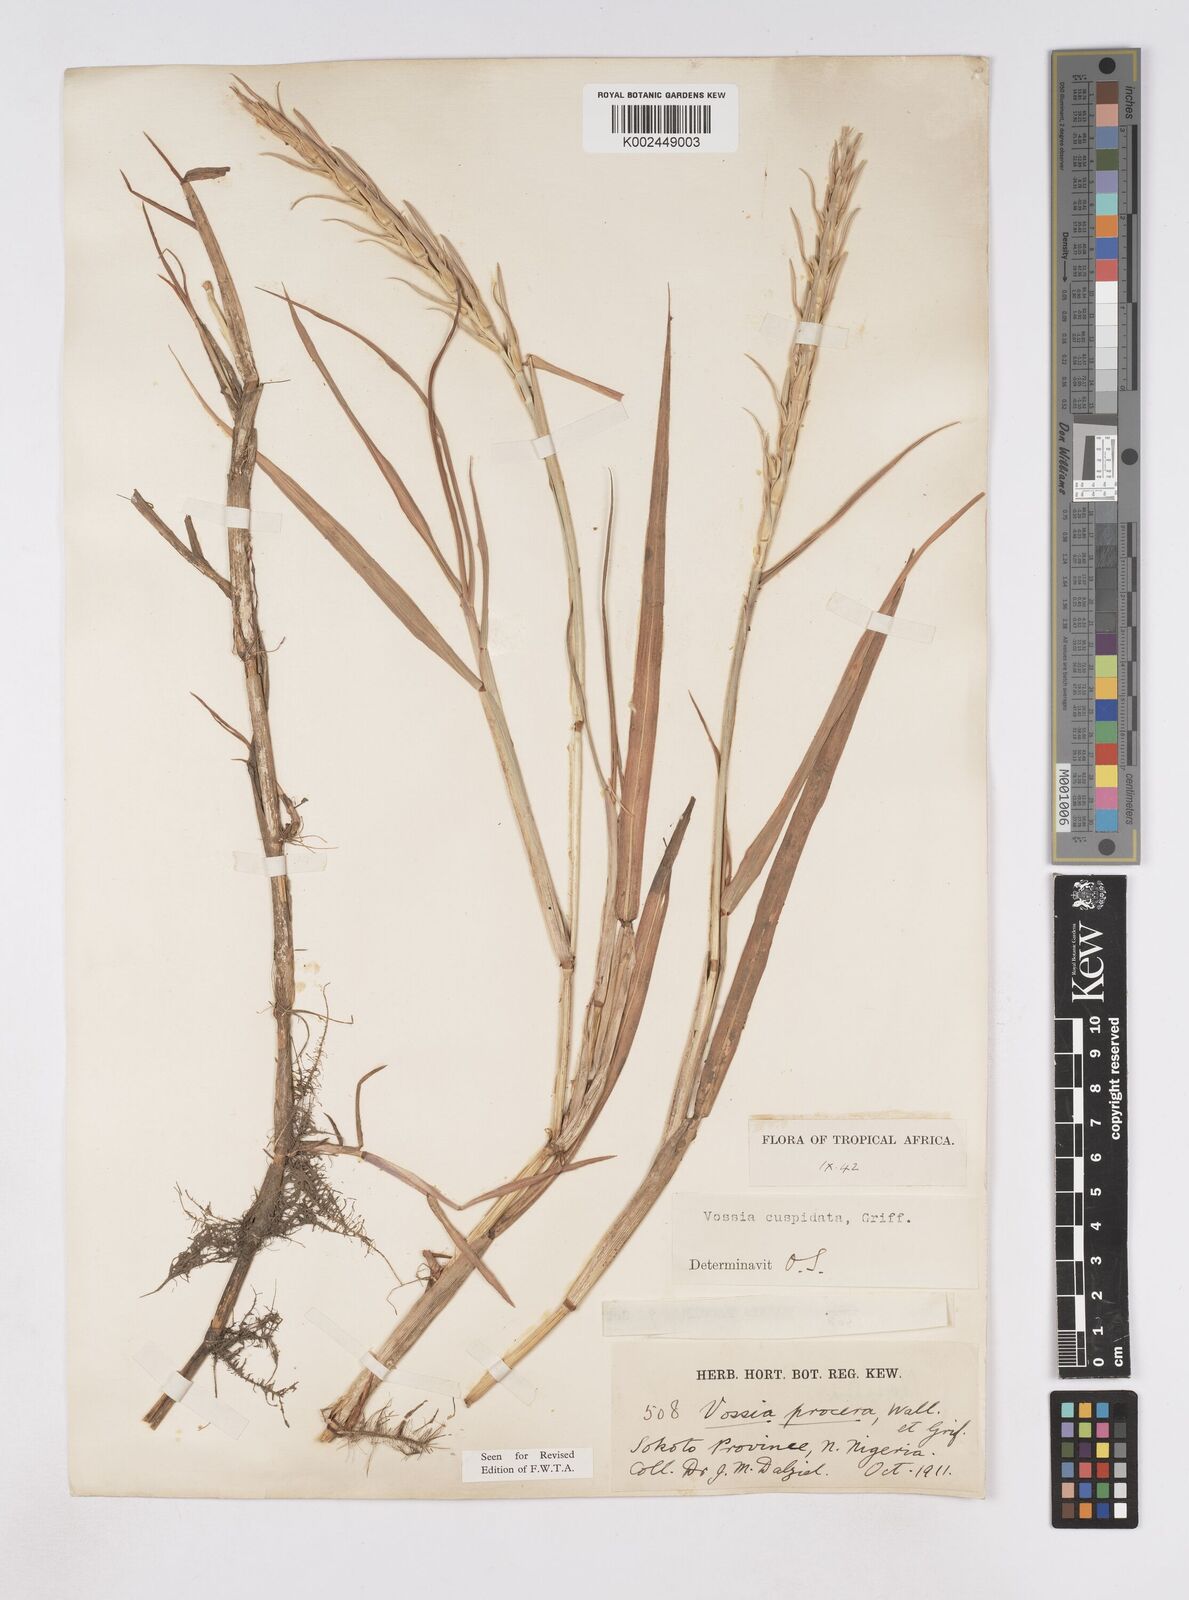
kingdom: Plantae
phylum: Tracheophyta
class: Liliopsida
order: Poales
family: Poaceae
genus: Vossia
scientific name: Vossia cuspidata
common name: Hippo grass
